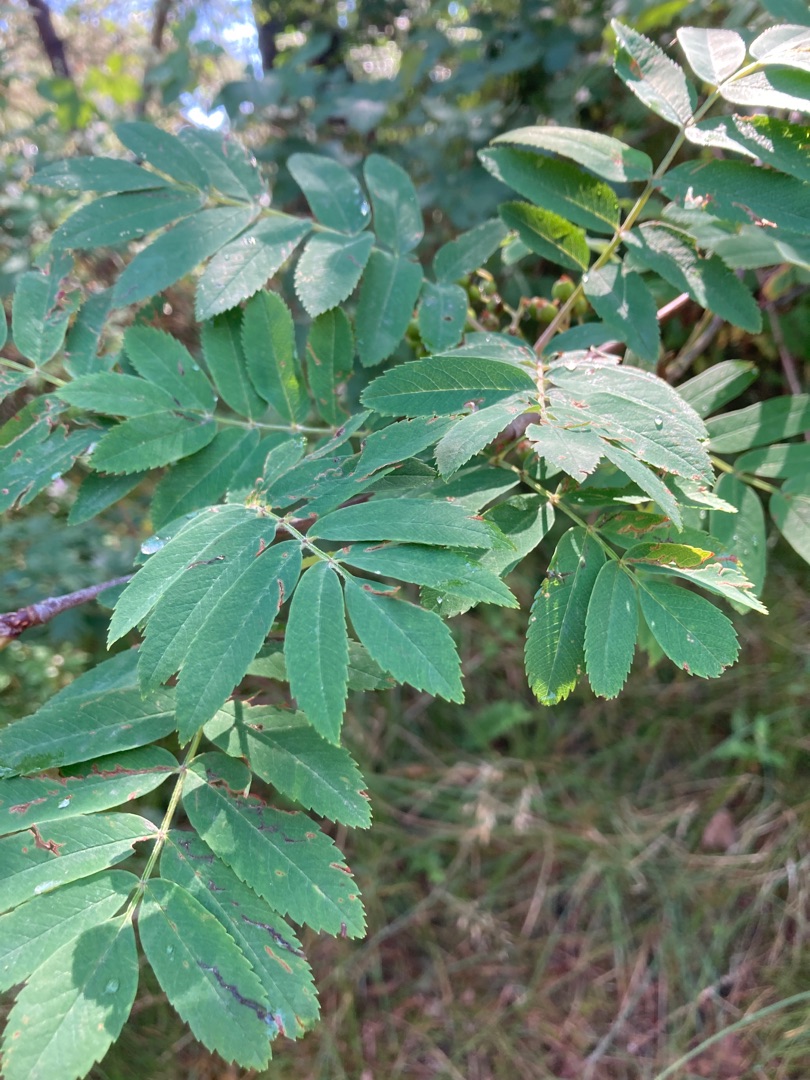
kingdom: Plantae
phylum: Tracheophyta
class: Magnoliopsida
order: Rosales
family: Rosaceae
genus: Sorbus
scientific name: Sorbus aucuparia
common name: Almindelig røn
